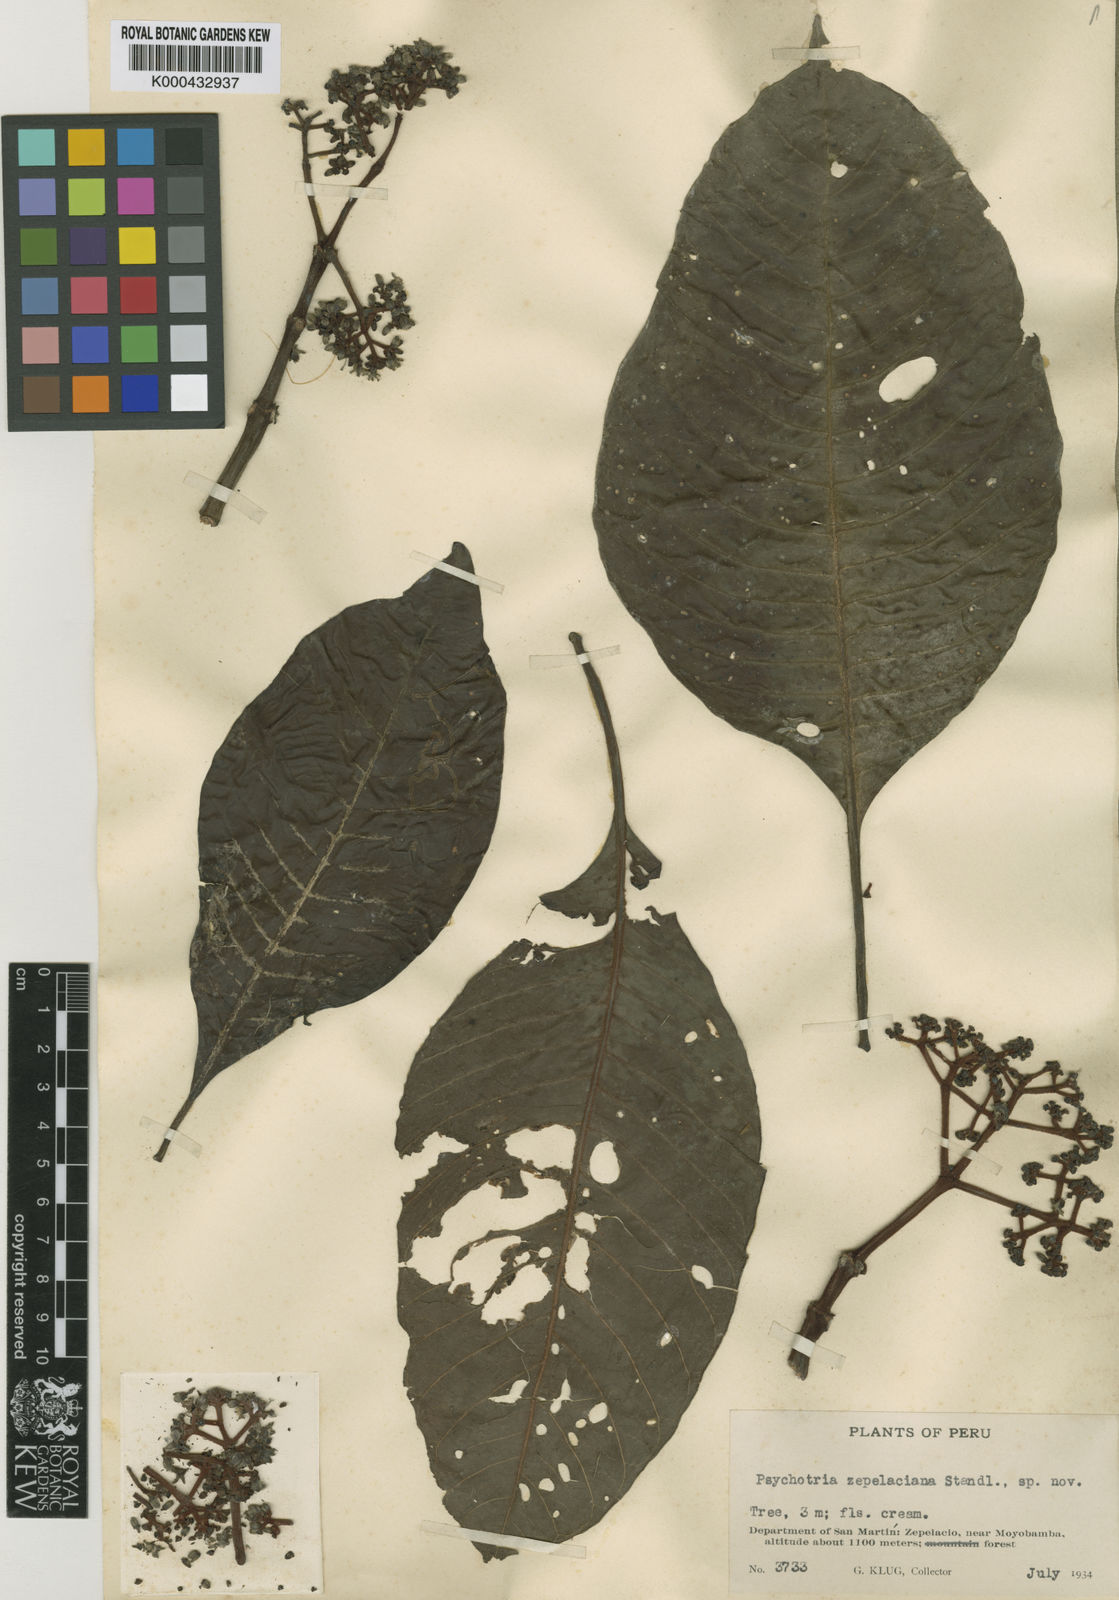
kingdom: Plantae
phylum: Tracheophyta
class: Magnoliopsida
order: Gentianales
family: Rubiaceae
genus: Psychotria
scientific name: Psychotria zepelaciana
